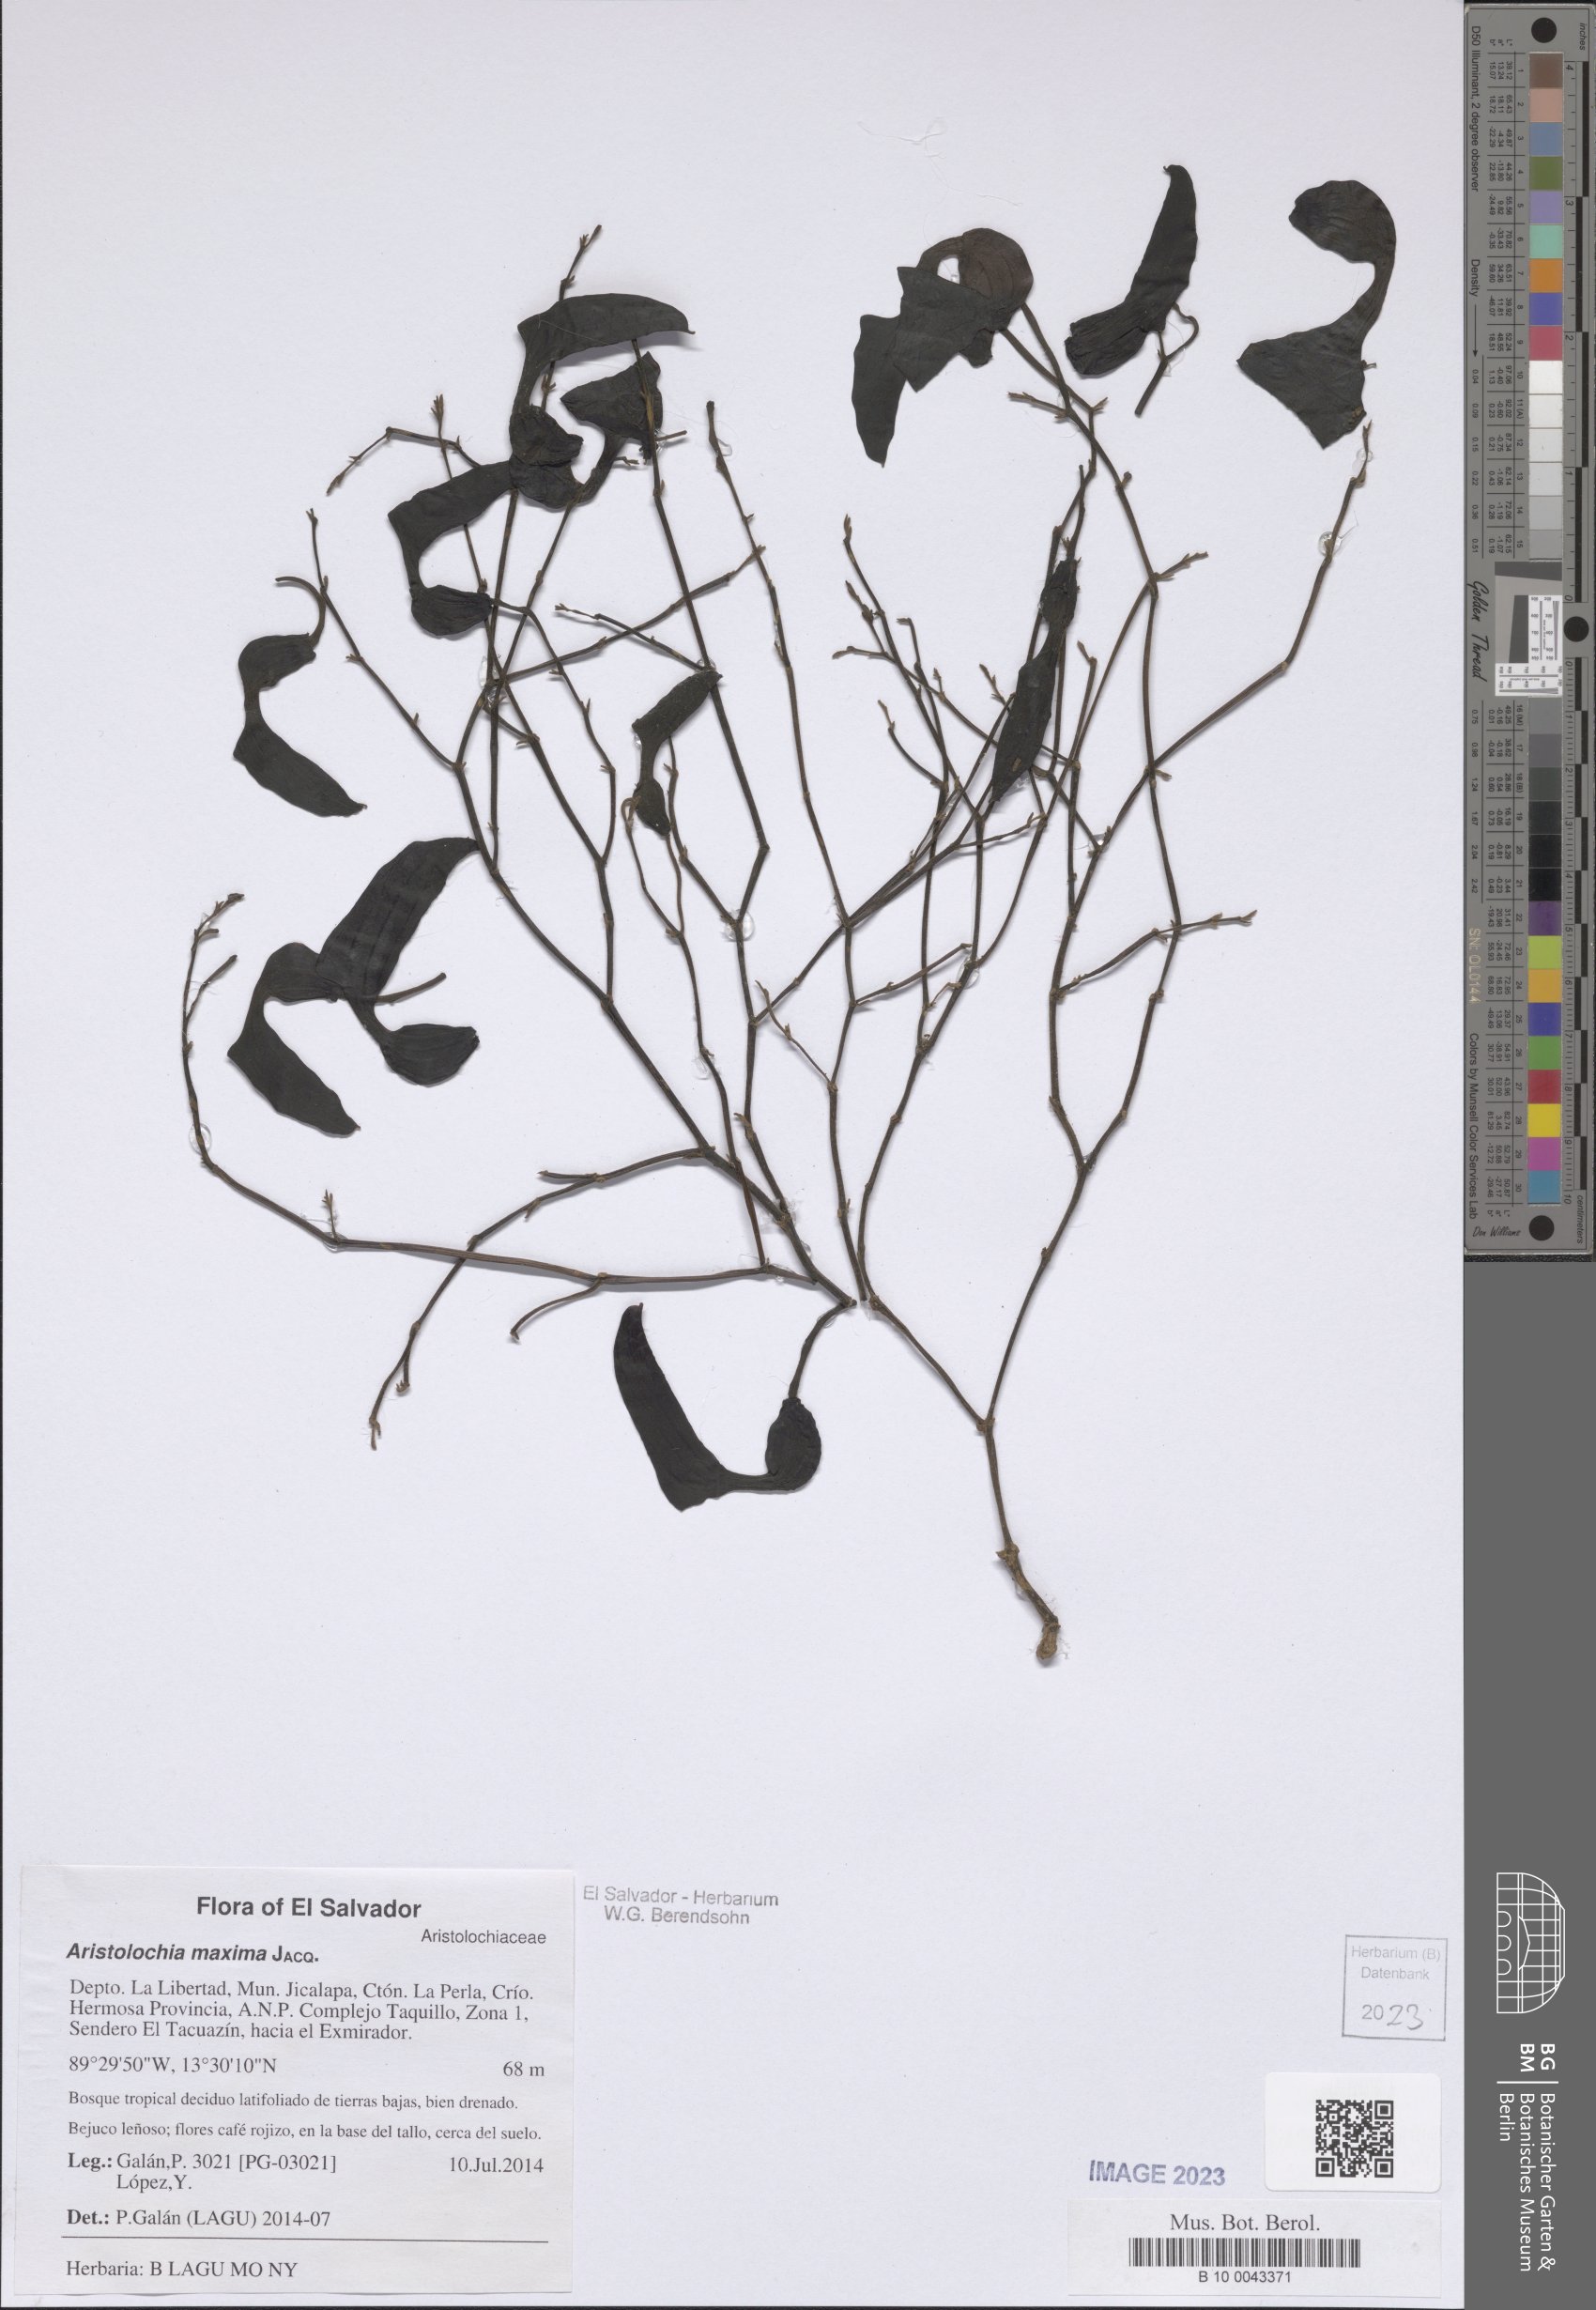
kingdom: Plantae
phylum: Tracheophyta
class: Magnoliopsida
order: Piperales
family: Aristolochiaceae
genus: Aristolochia
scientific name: Aristolochia maxima
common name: Florida dutchman's pipe
